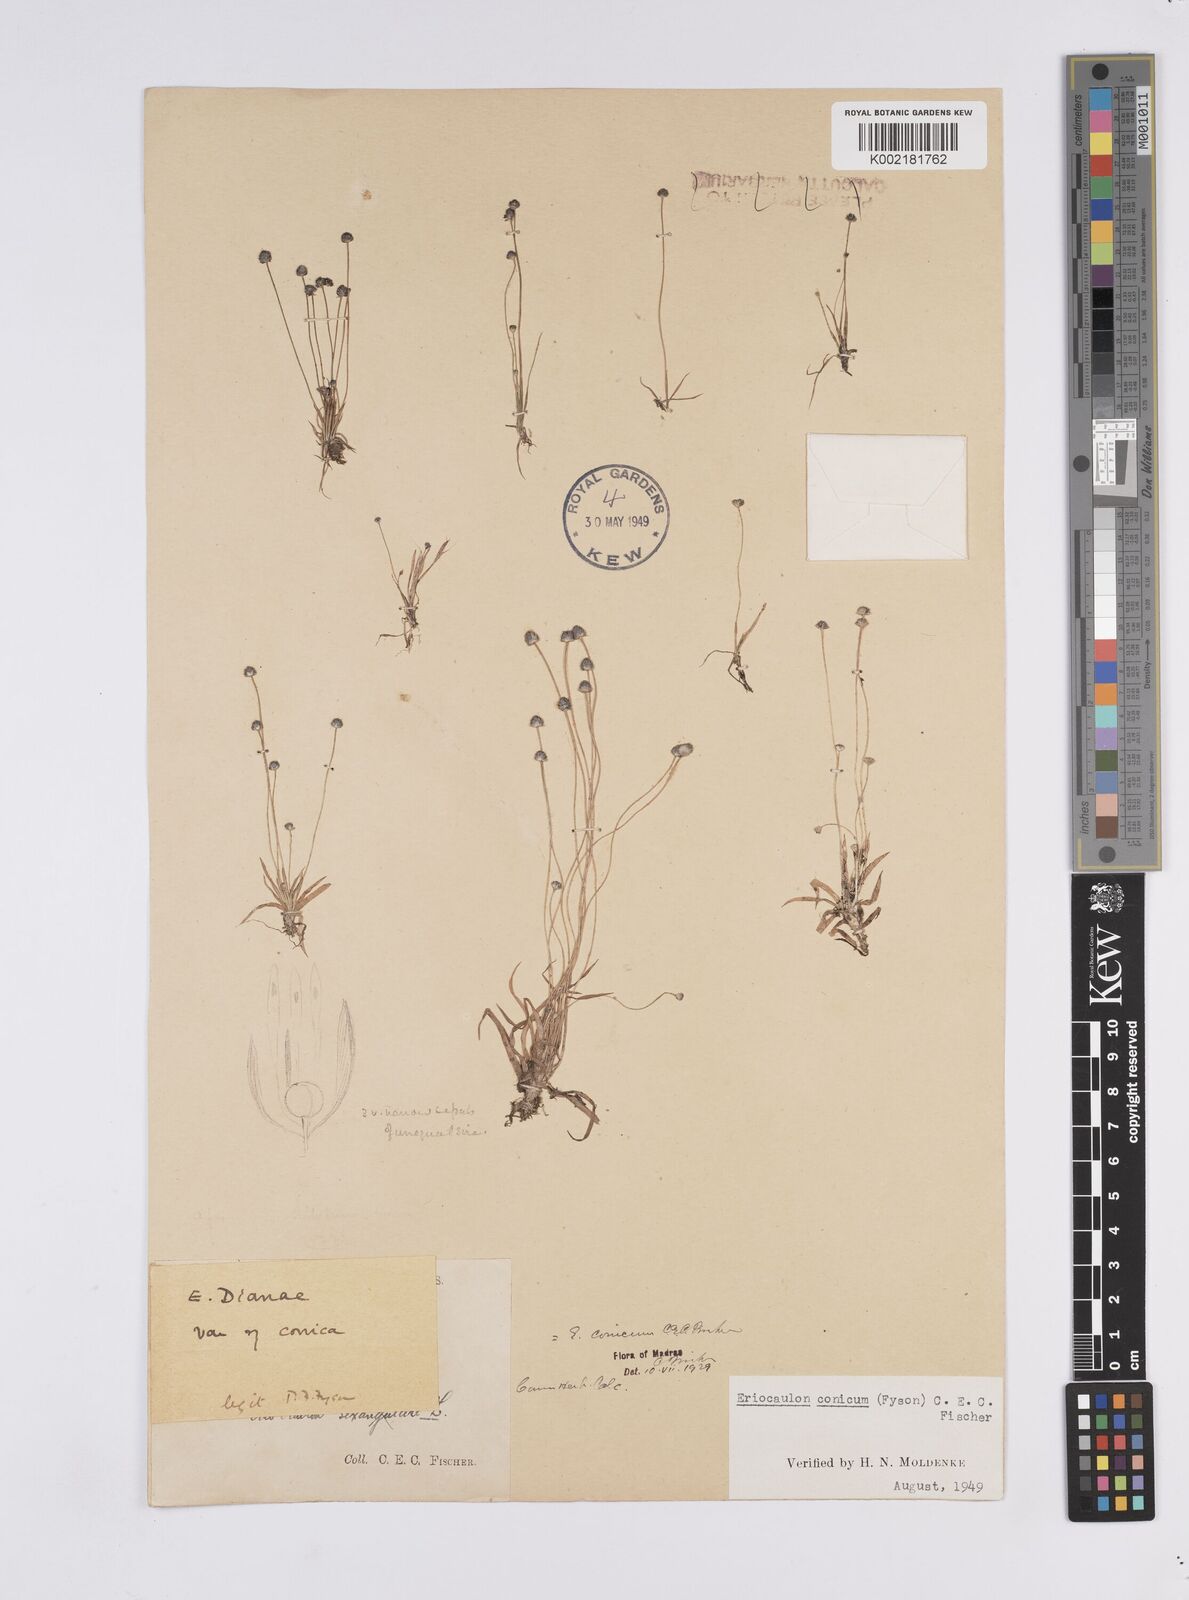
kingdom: Plantae
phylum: Tracheophyta
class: Liliopsida
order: Poales
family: Eriocaulaceae
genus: Eriocaulon
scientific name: Eriocaulon conicum
